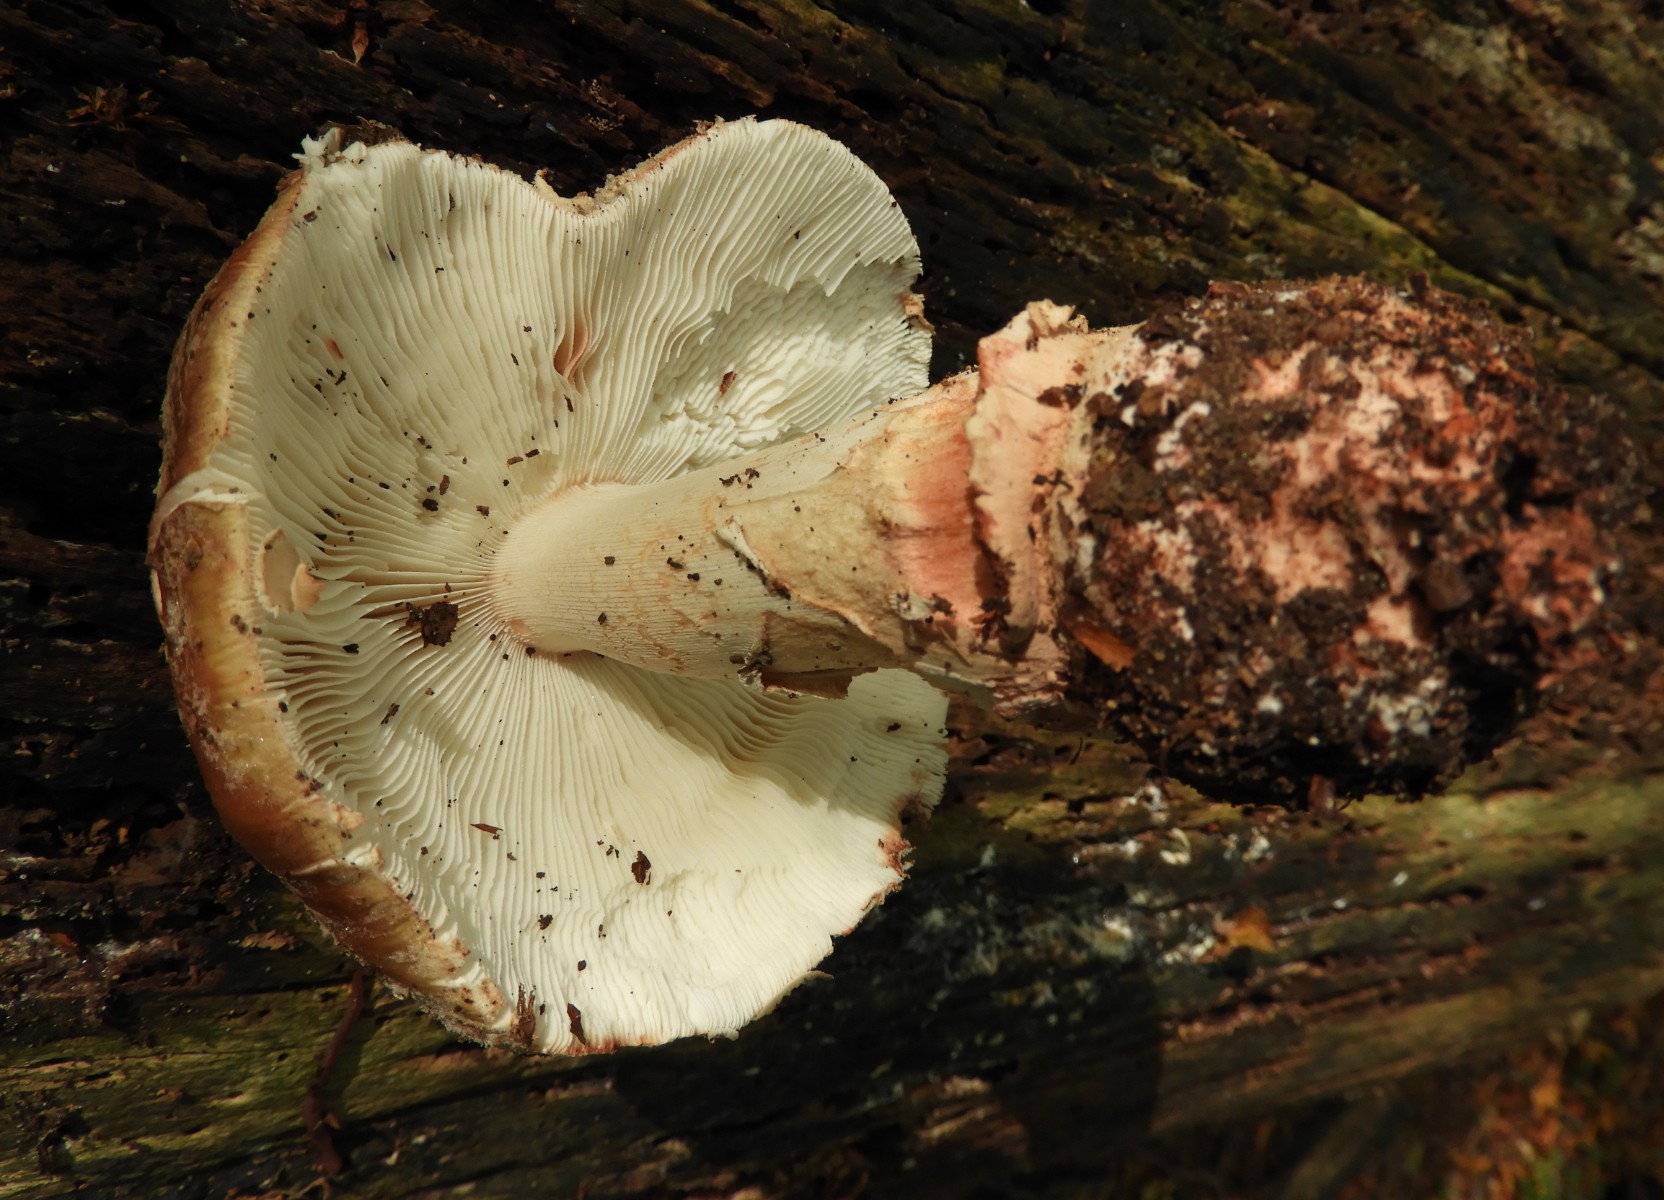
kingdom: Fungi
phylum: Basidiomycota
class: Agaricomycetes
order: Agaricales
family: Amanitaceae
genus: Amanita
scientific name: Amanita rubescens
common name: rødmende fluesvamp
